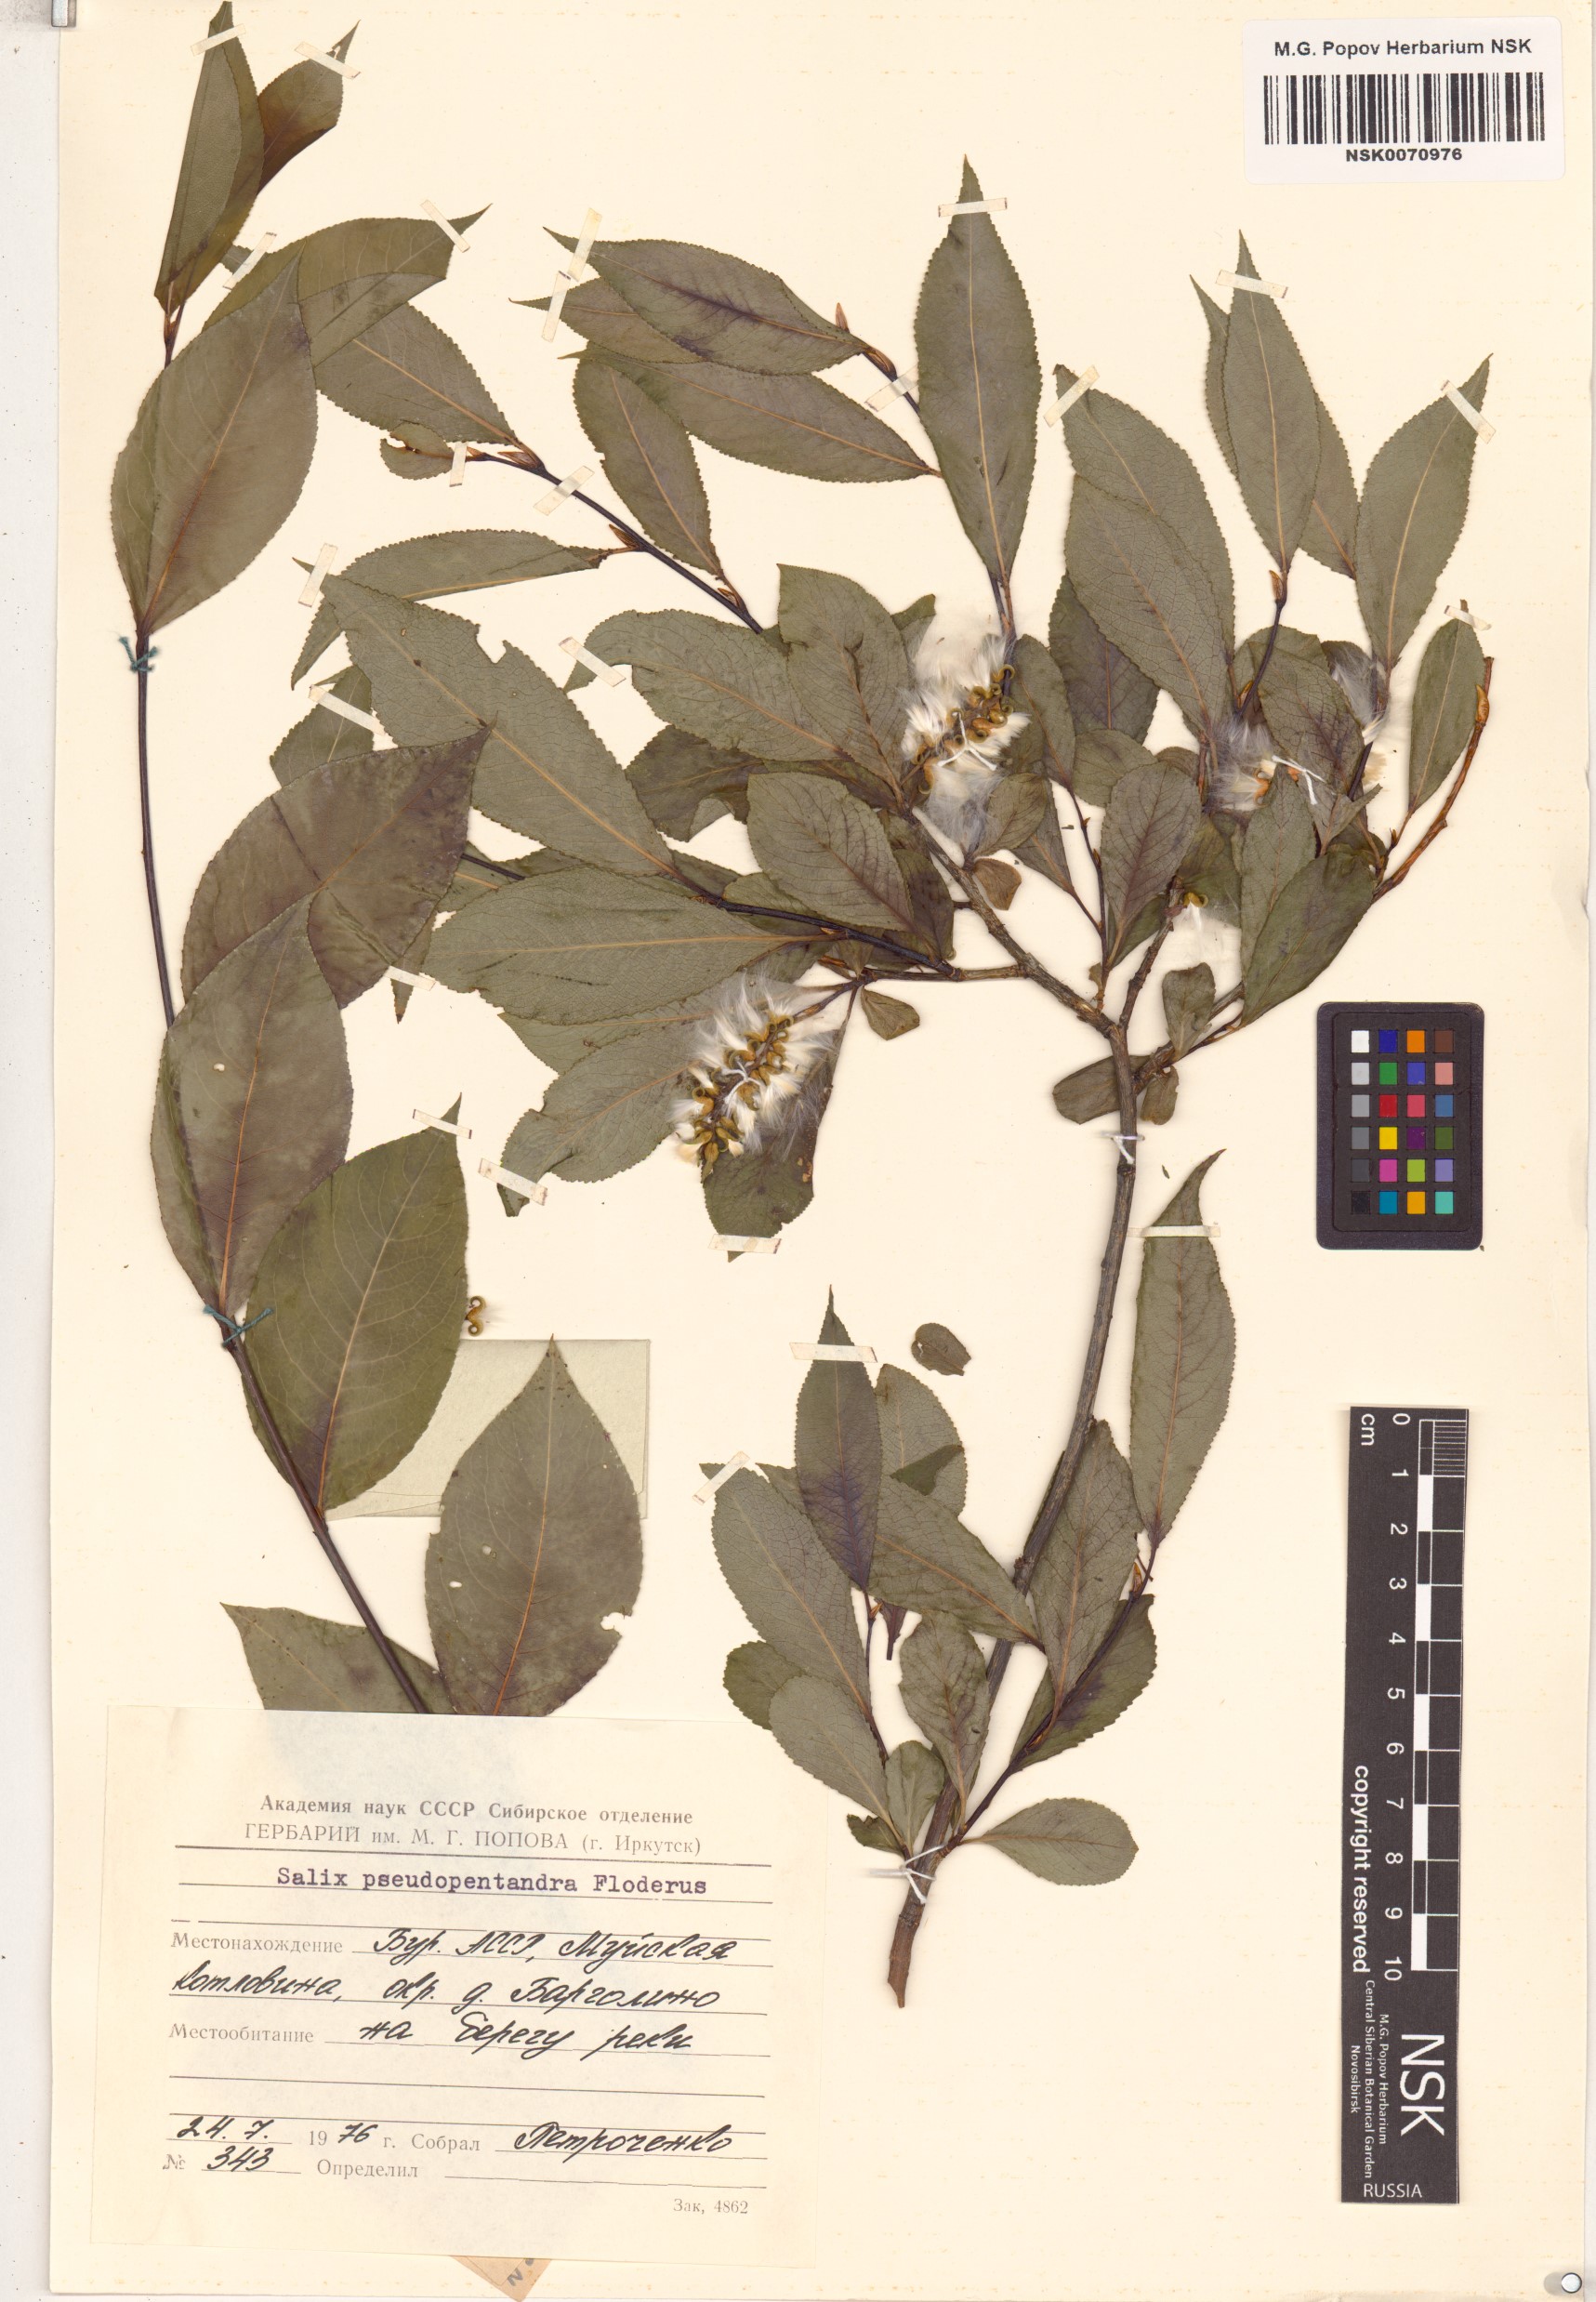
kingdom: Plantae
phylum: Tracheophyta
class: Magnoliopsida
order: Malpighiales
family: Salicaceae
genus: Salix
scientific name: Salix pseudopentandra
